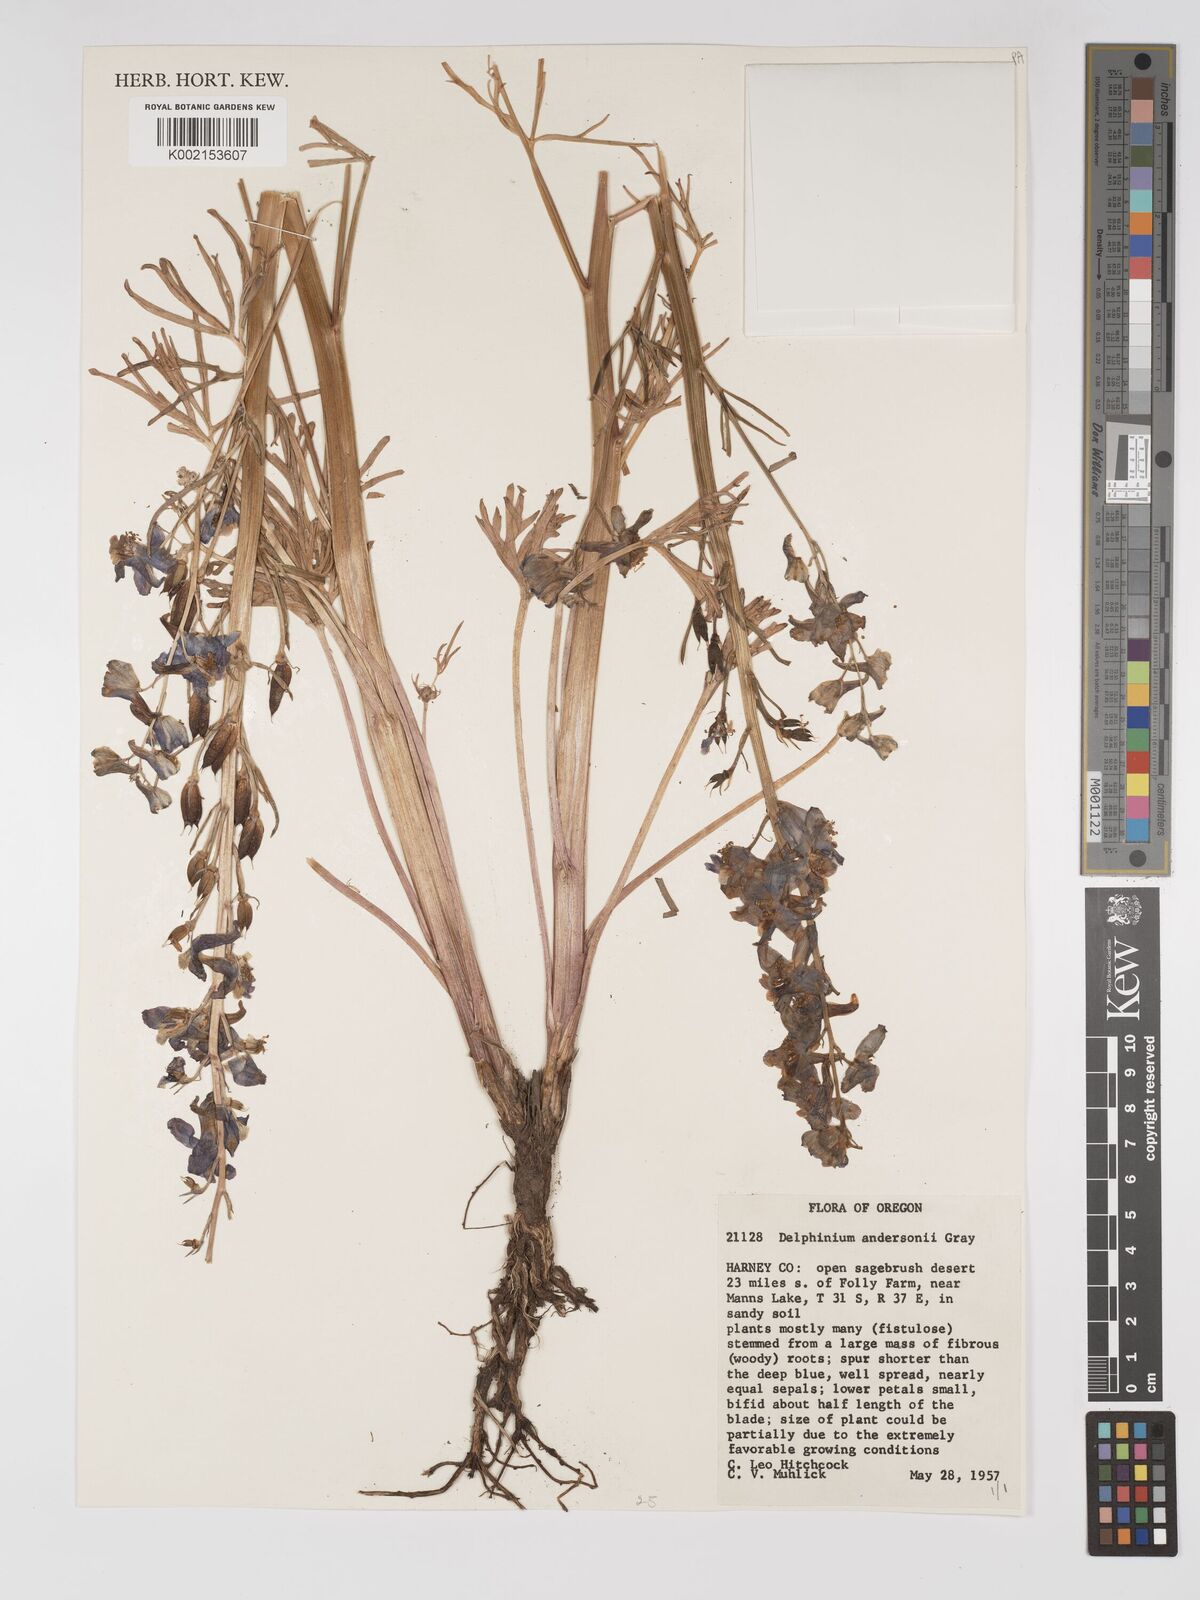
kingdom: Plantae
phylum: Tracheophyta
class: Magnoliopsida
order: Ranunculales
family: Ranunculaceae
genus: Delphinium
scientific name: Delphinium andersonii
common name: Anderson's larkspur
